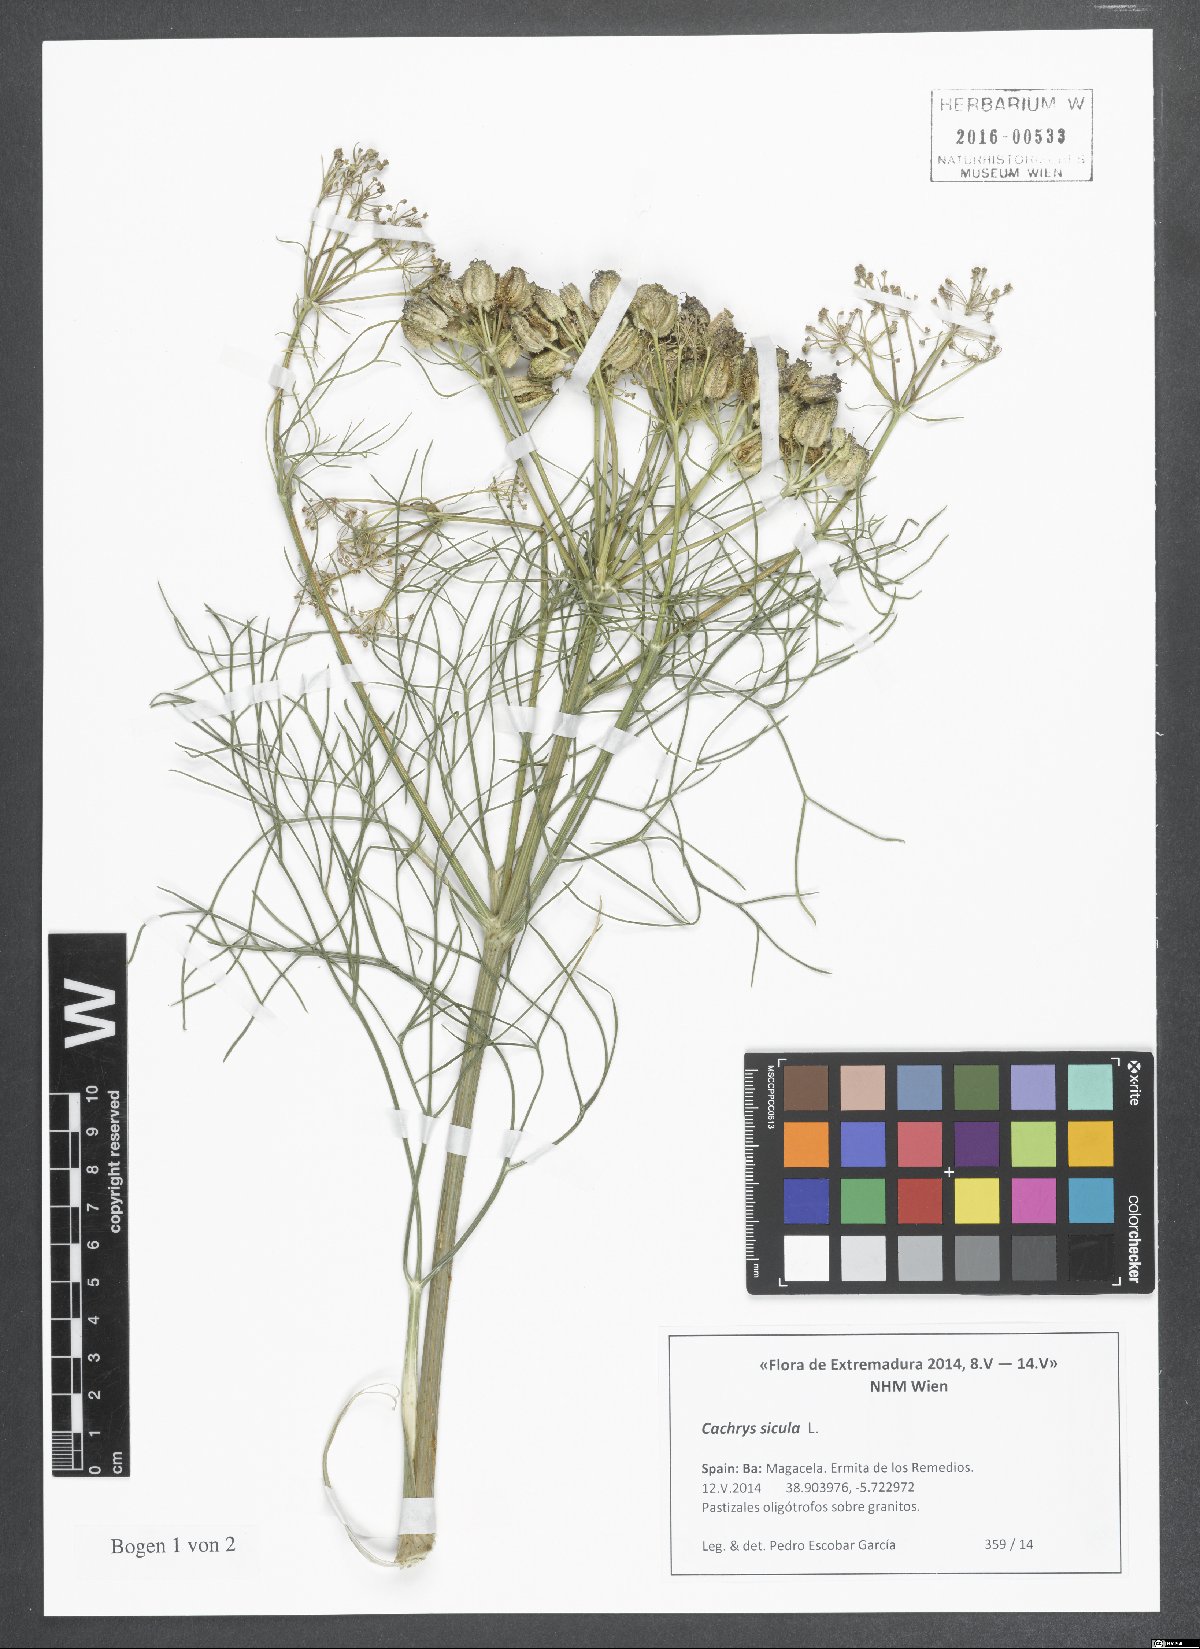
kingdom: Plantae
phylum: Tracheophyta
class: Magnoliopsida
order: Apiales
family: Apiaceae
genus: Cachrys
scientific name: Cachrys sicula
